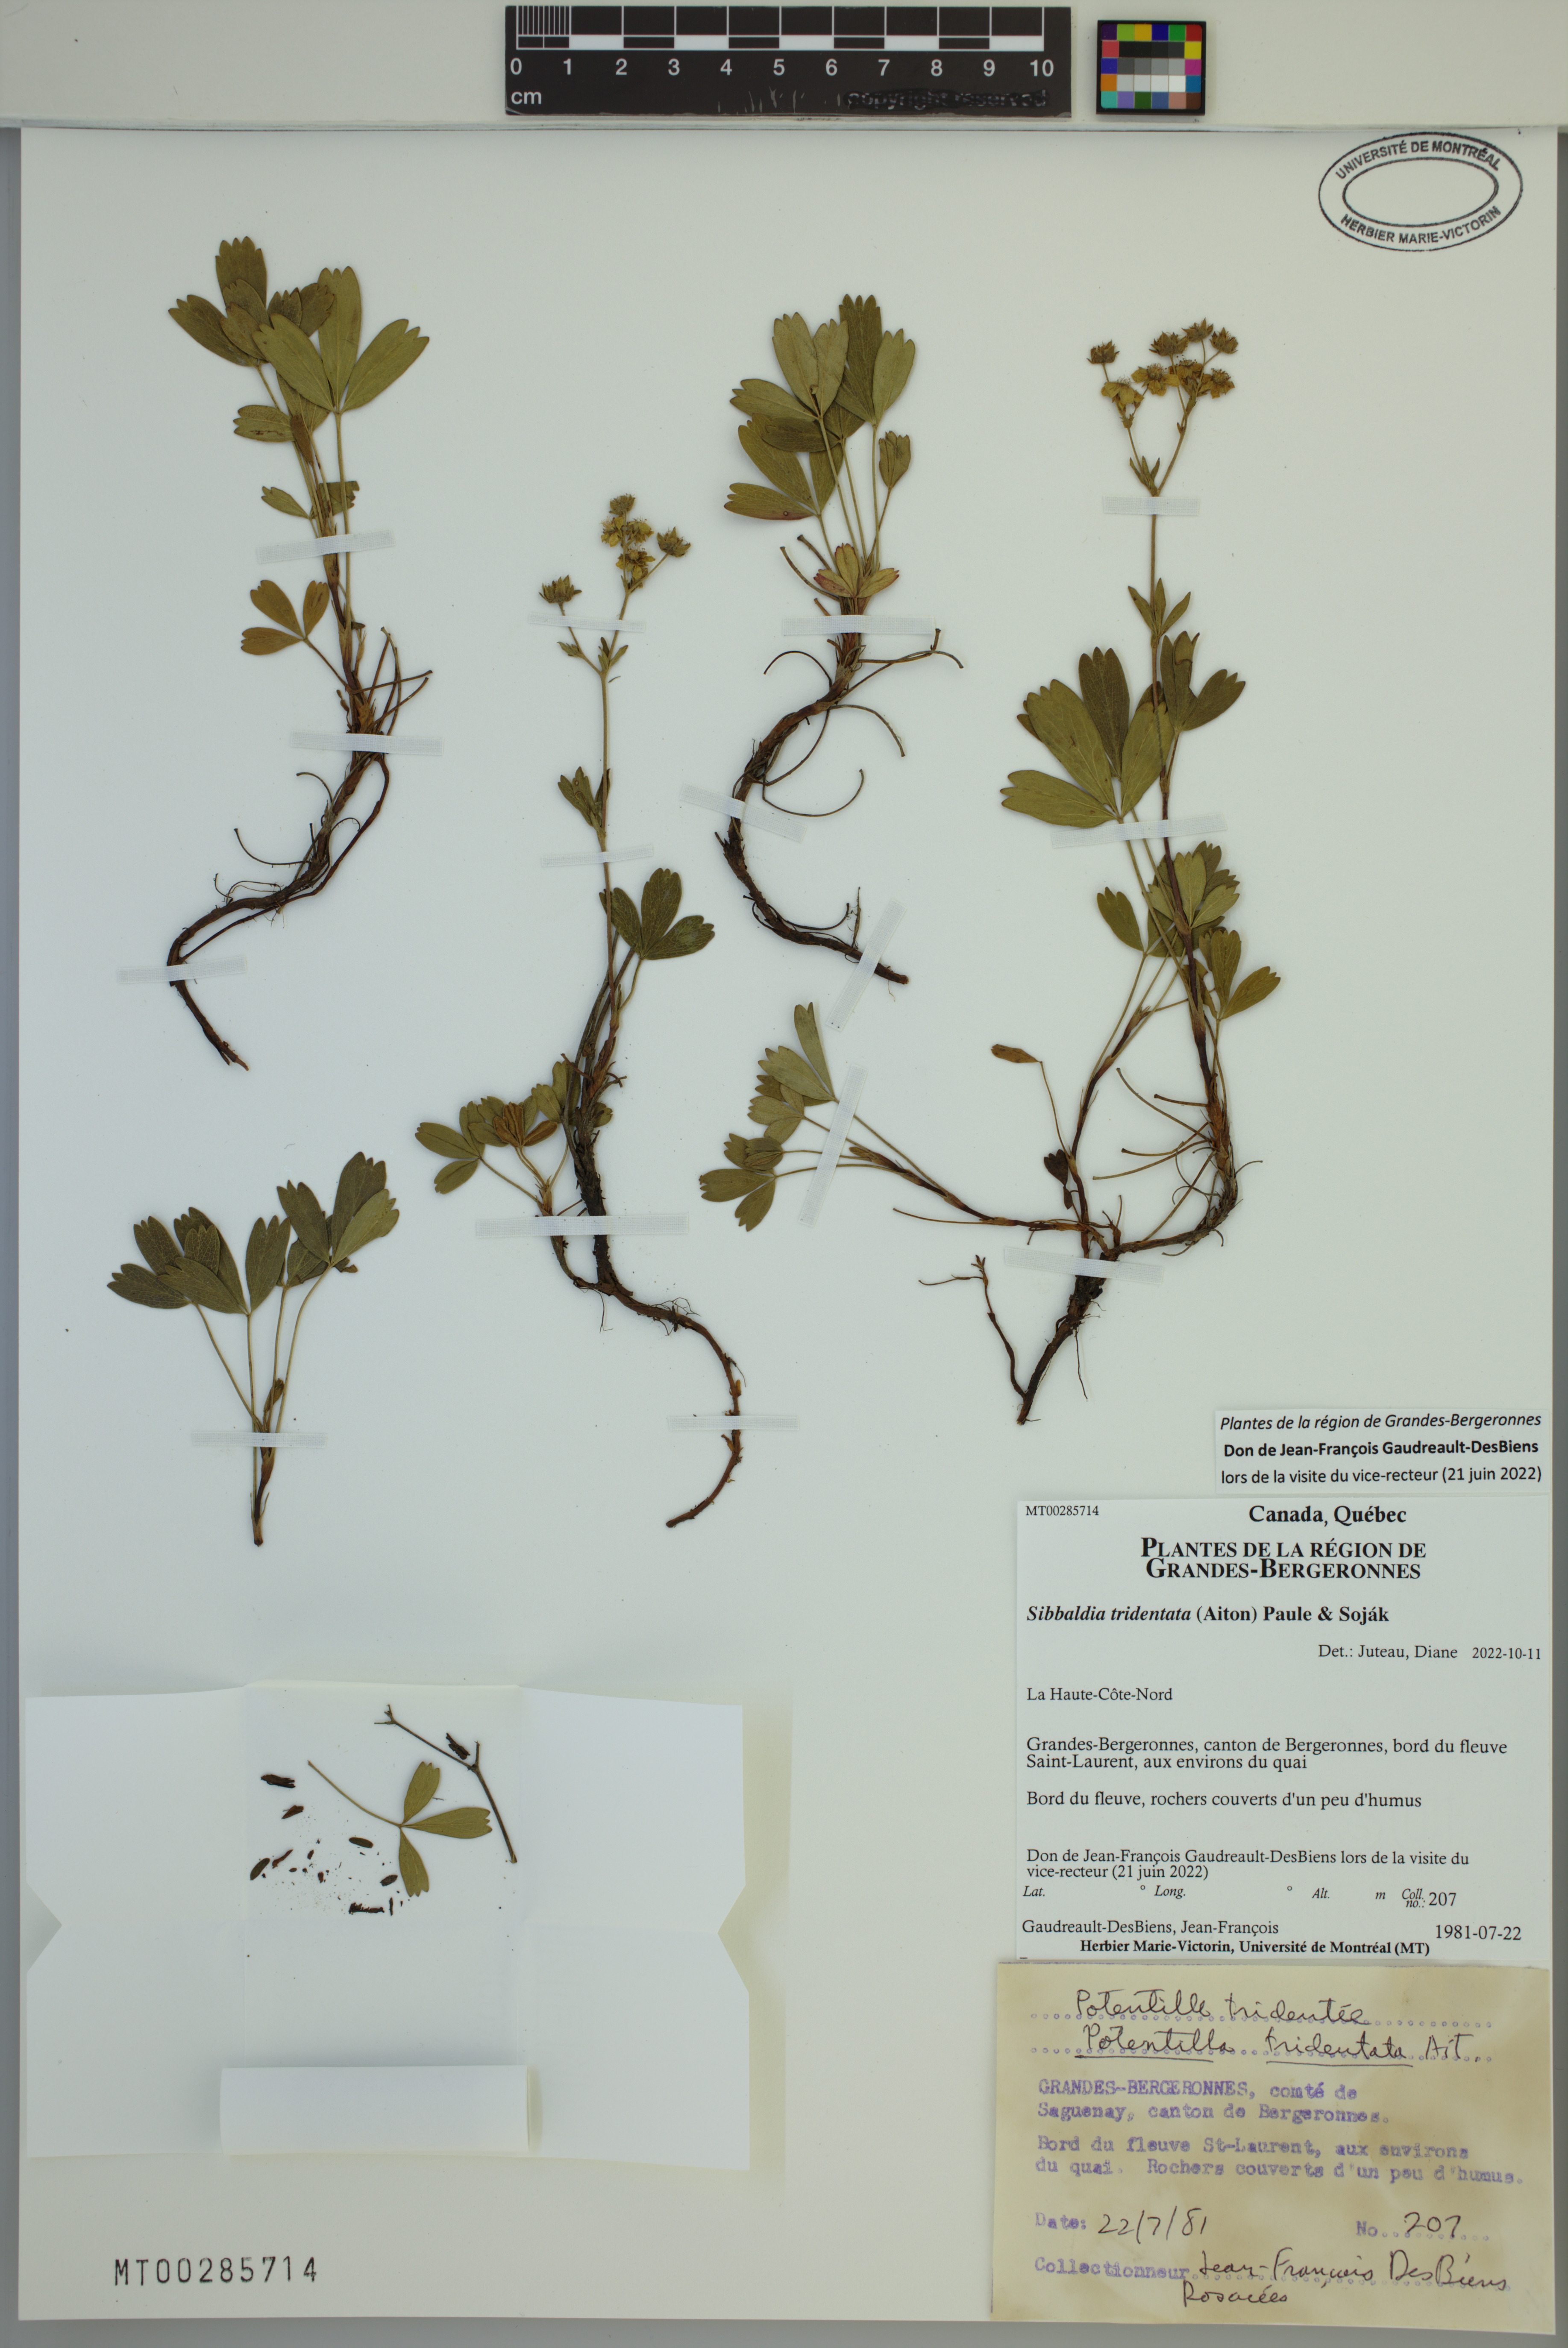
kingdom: Plantae
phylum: Tracheophyta
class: Magnoliopsida
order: Rosales
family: Rosaceae
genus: Sibbaldia
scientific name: Sibbaldia tridentata
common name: Three-toothed cinquefoil
